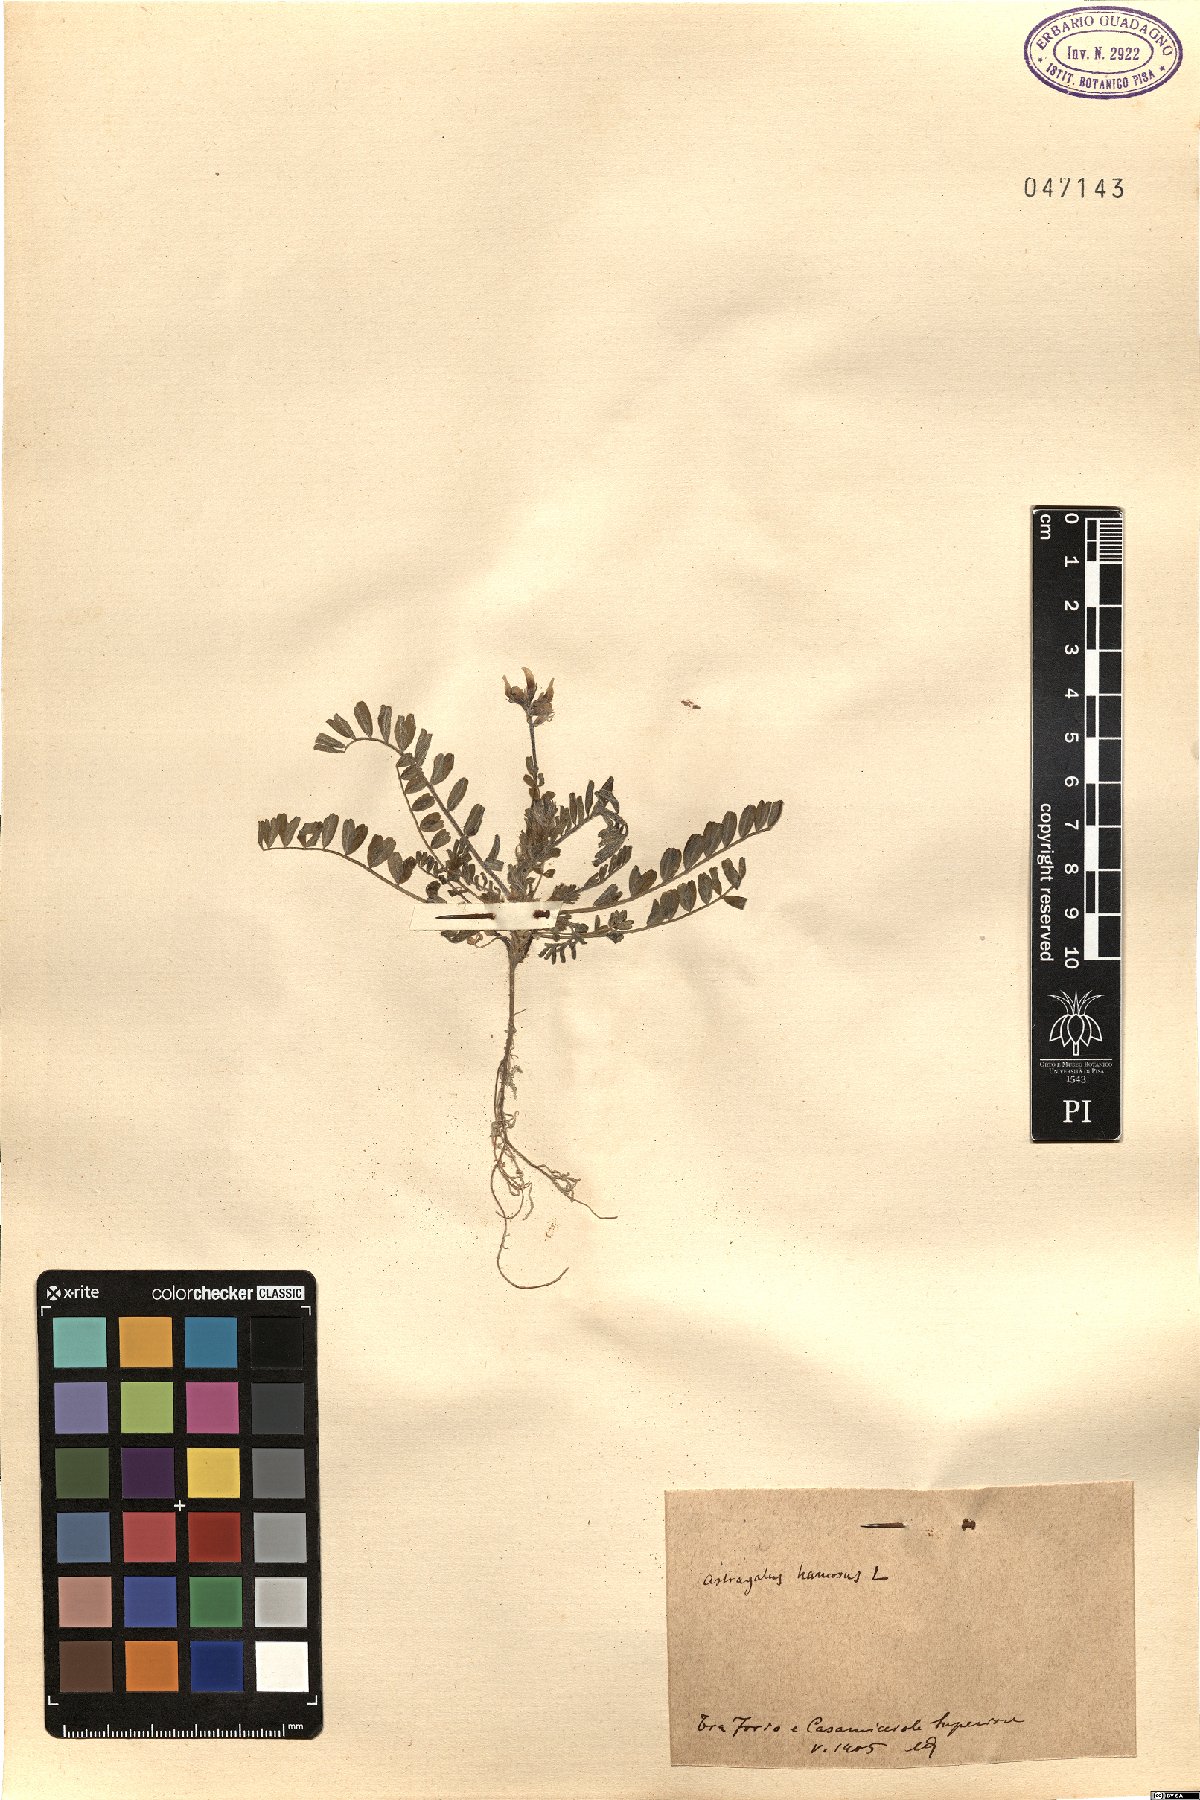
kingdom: Plantae
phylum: Tracheophyta
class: Magnoliopsida
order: Fabales
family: Fabaceae
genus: Astragalus
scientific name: Astragalus hamosus
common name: European milkvetch
